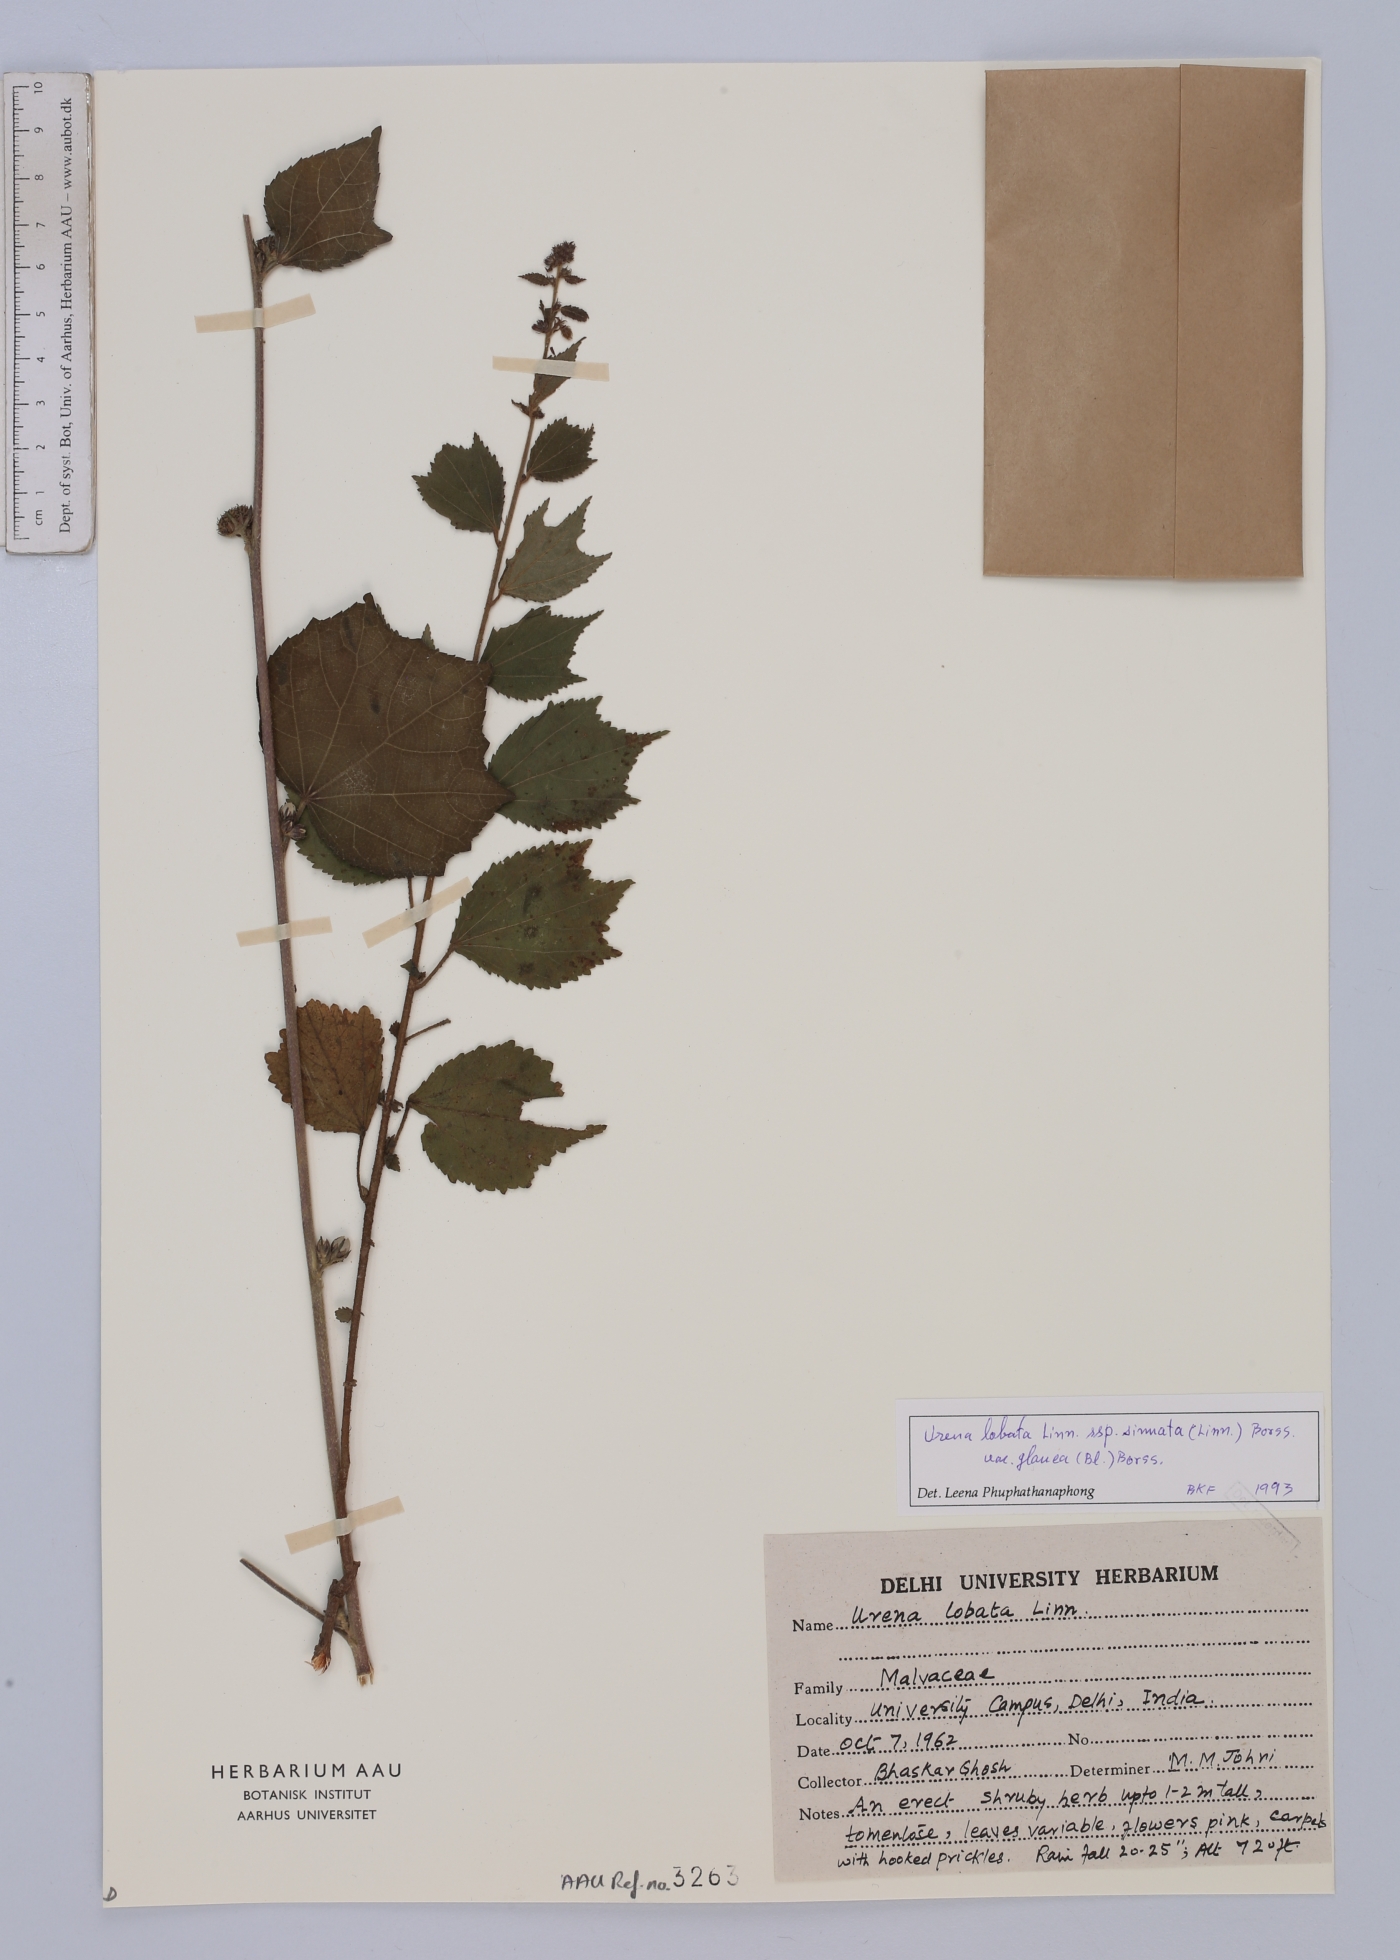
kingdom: Plantae
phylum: Tracheophyta
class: Magnoliopsida
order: Malvales
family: Malvaceae
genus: Urena
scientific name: Urena lobata
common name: Caesarweed
